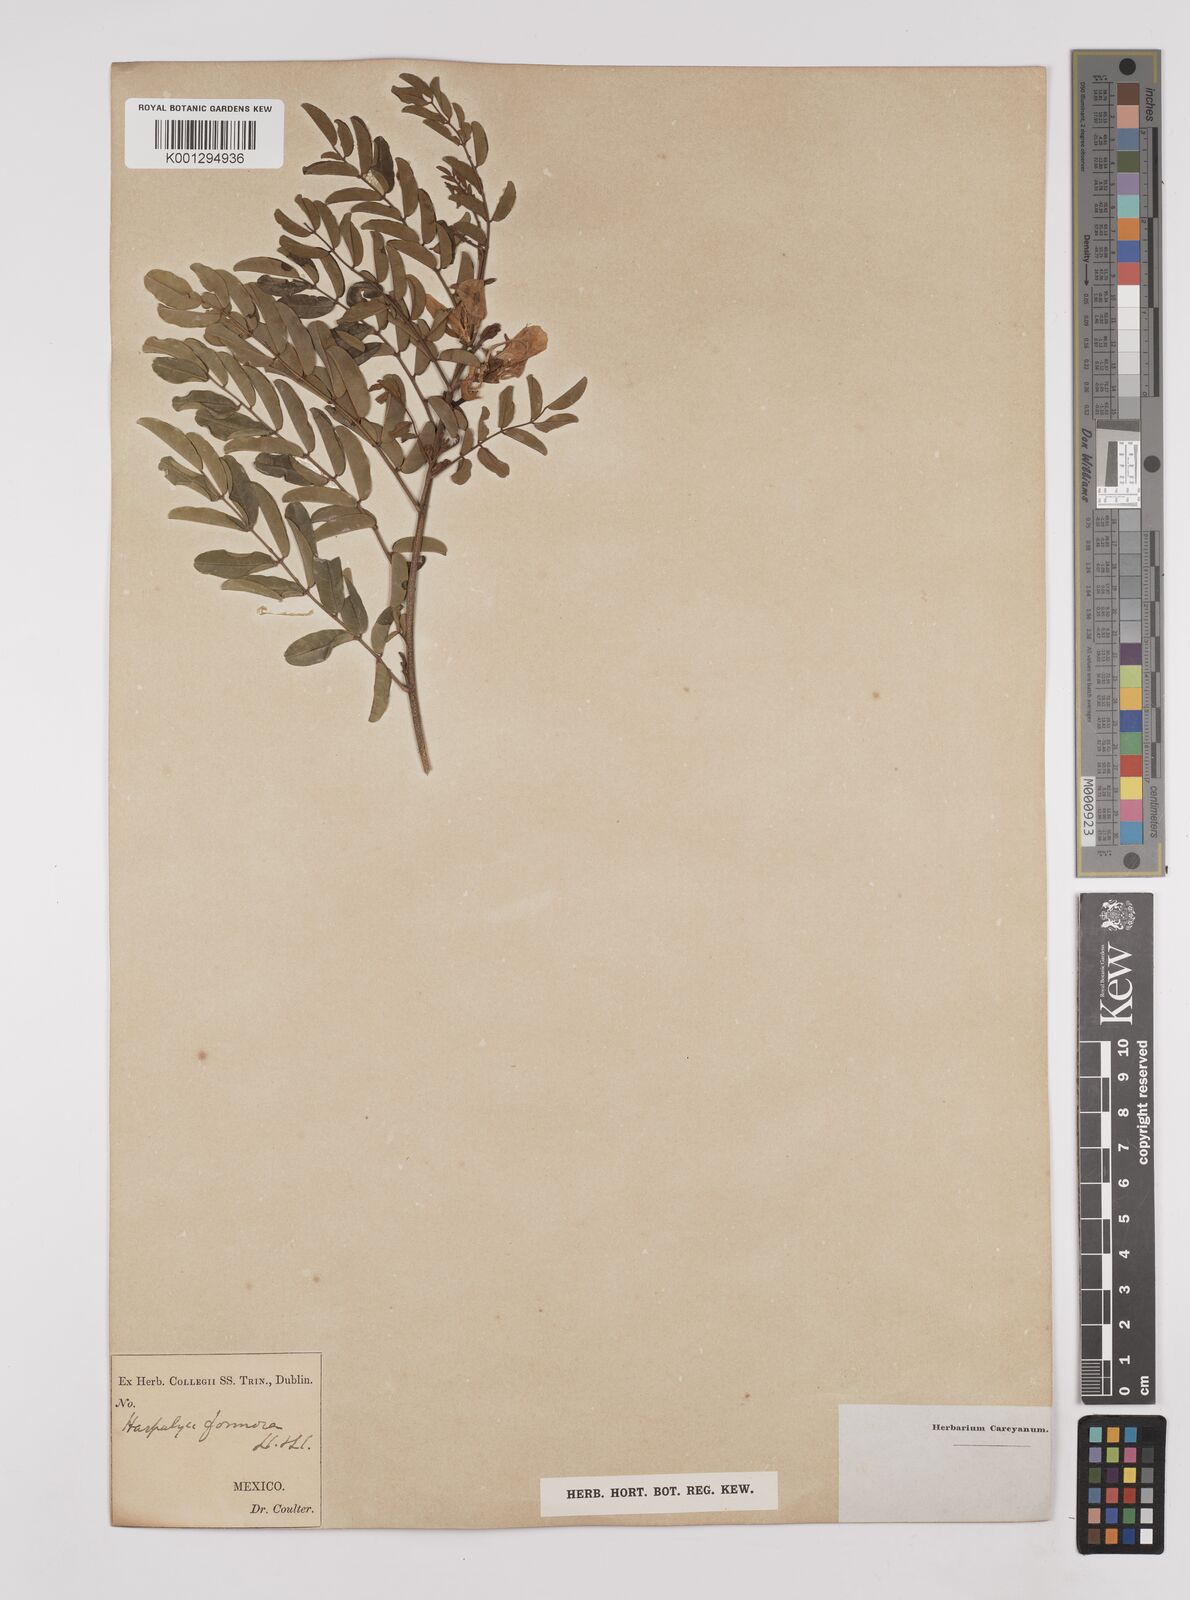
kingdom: Plantae
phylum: Tracheophyta
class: Magnoliopsida
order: Fabales
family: Fabaceae
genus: Harpalyce
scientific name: Harpalyce formosa
